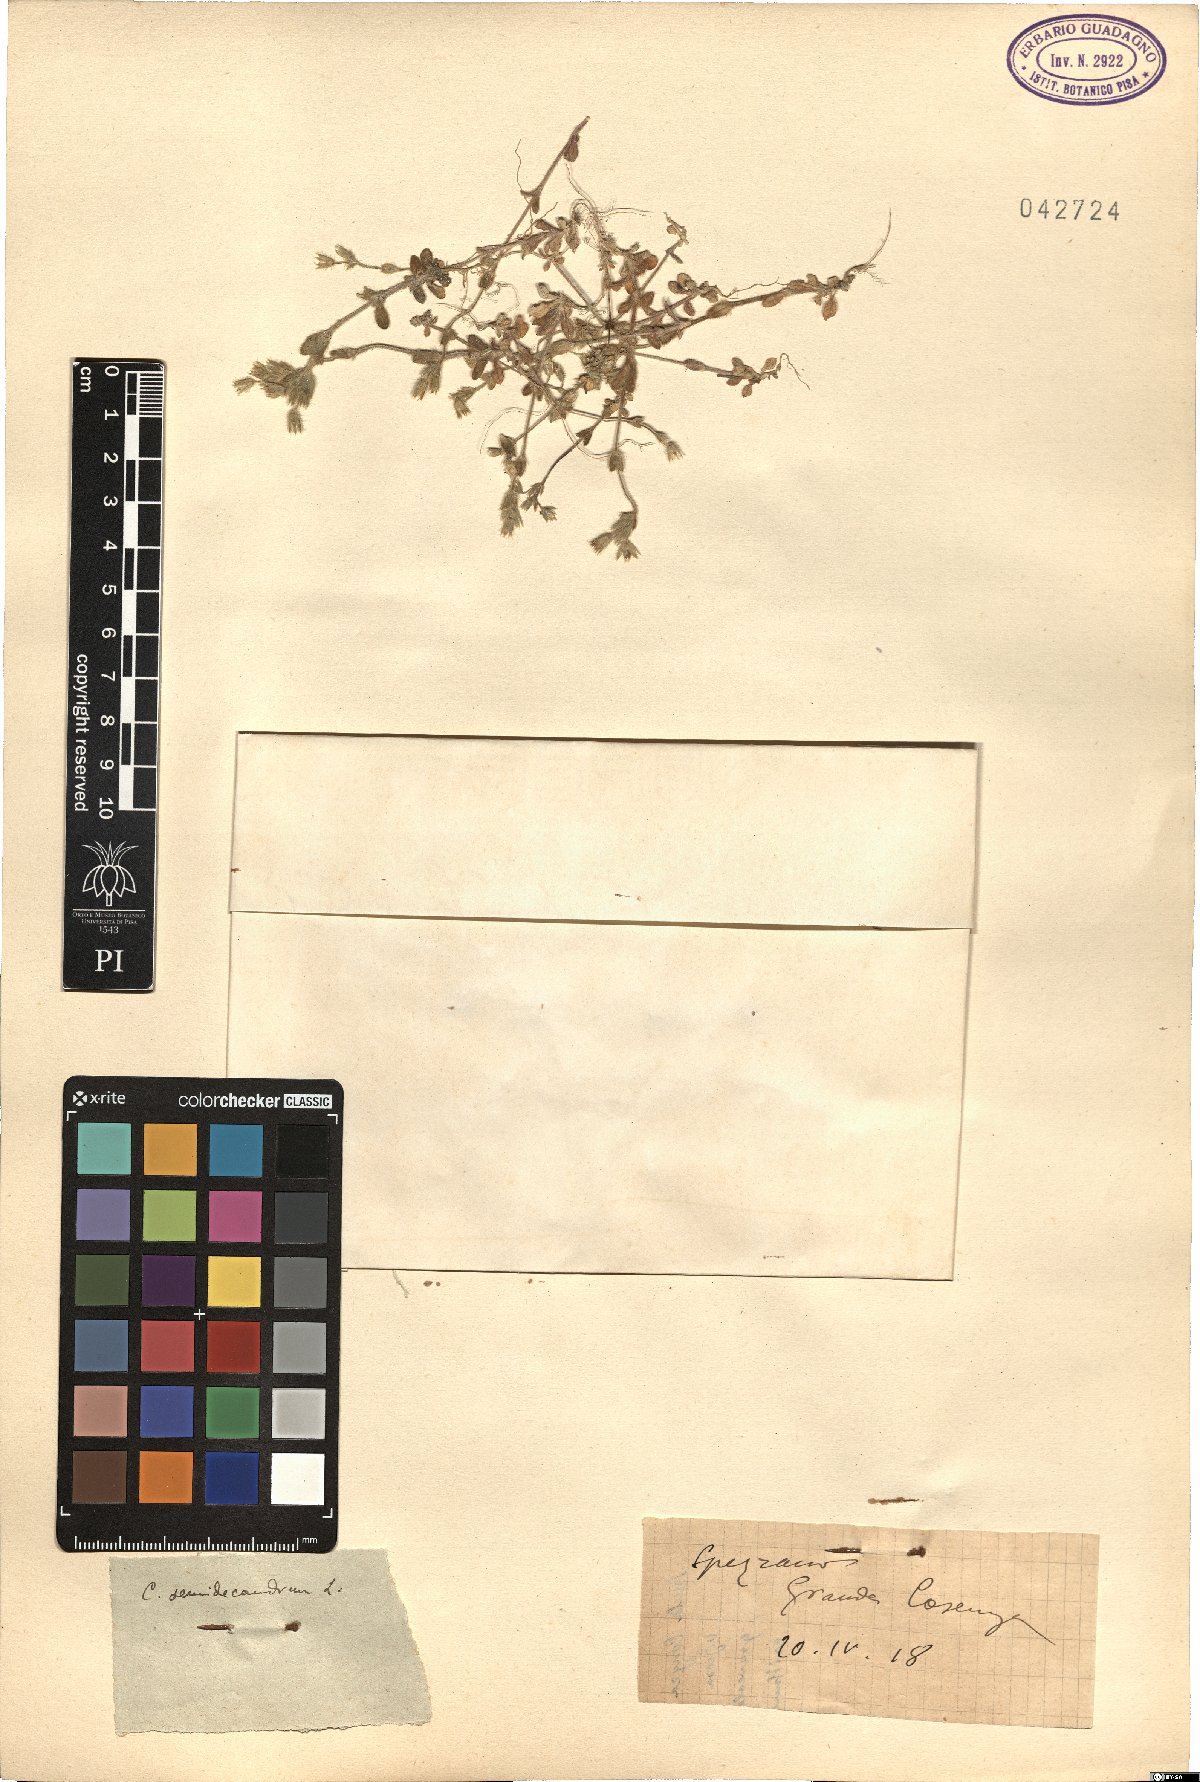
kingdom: Plantae
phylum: Tracheophyta
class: Magnoliopsida
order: Caryophyllales
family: Caryophyllaceae
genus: Cerastium
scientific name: Cerastium semidecandrum
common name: Little mouse-ear
